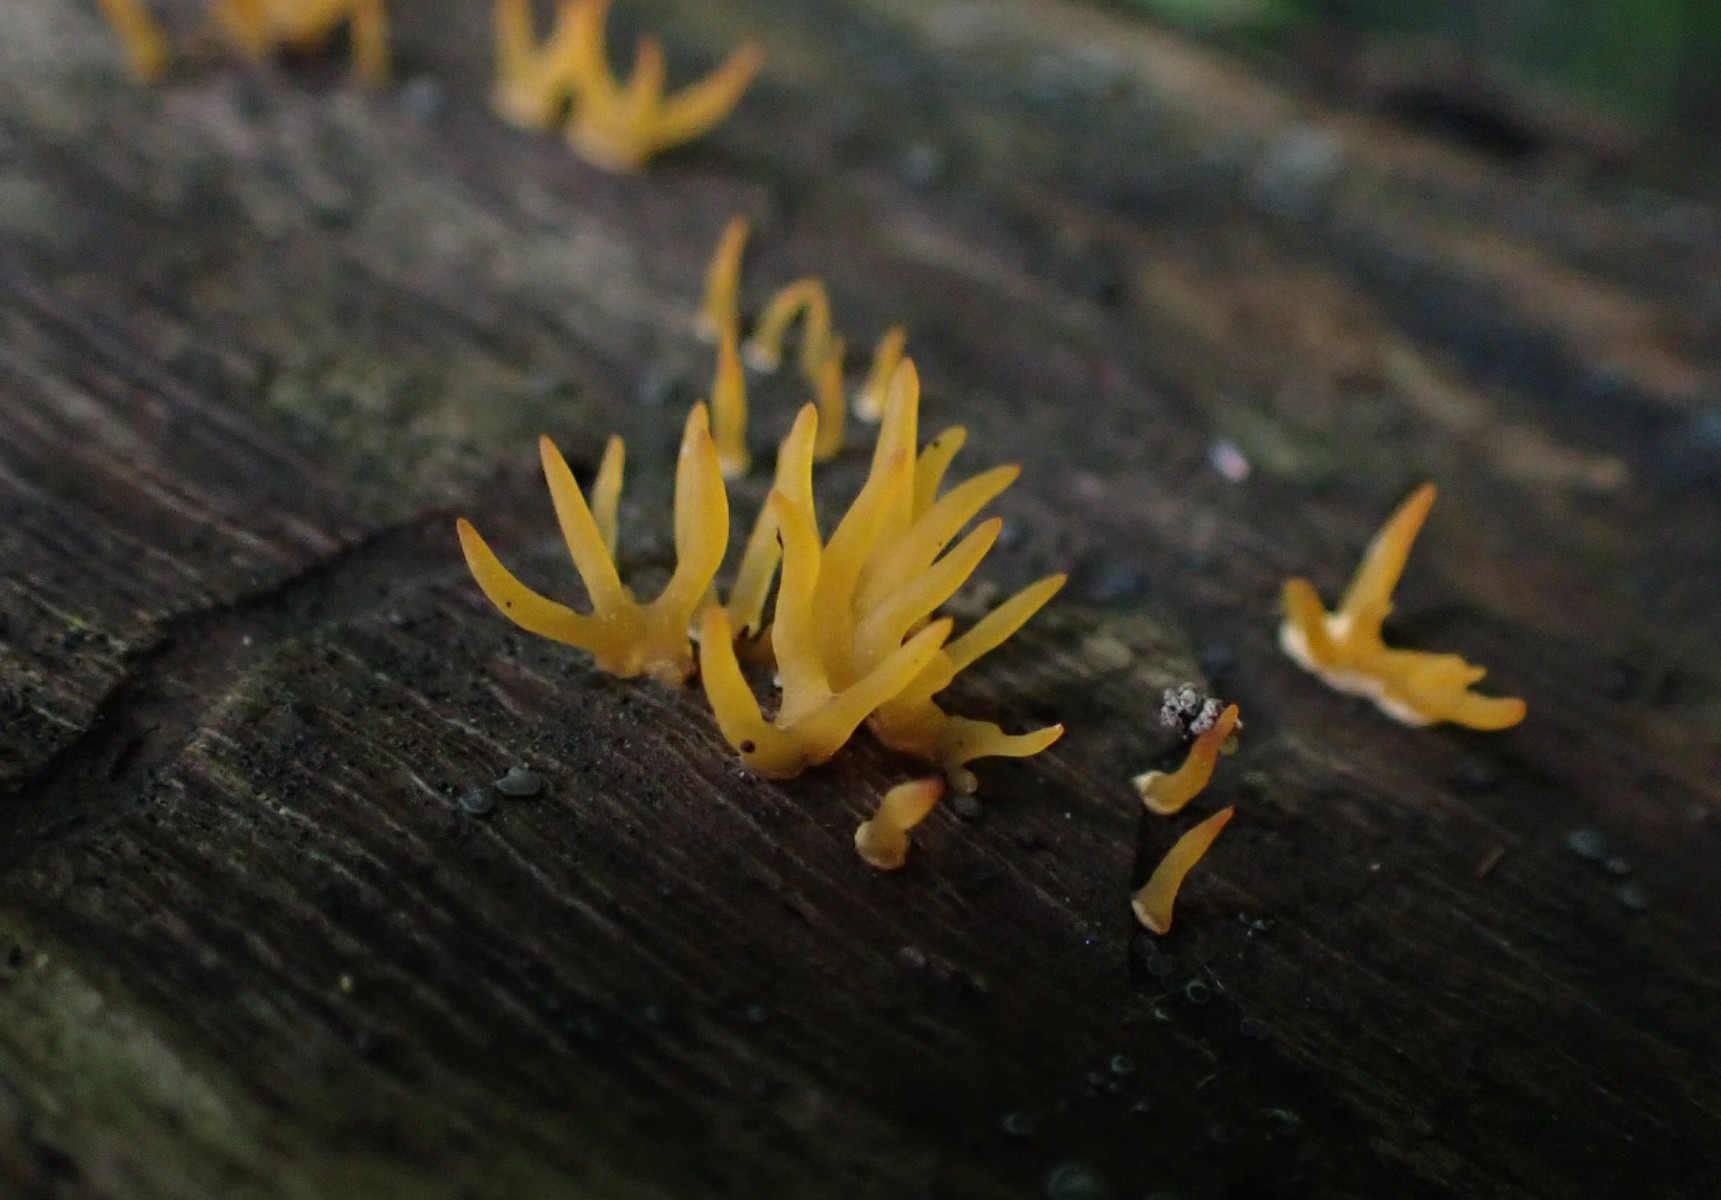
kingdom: Fungi
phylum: Basidiomycota
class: Dacrymycetes
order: Dacrymycetales
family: Dacrymycetaceae
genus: Calocera
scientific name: Calocera cornea
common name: liden guldgaffel
